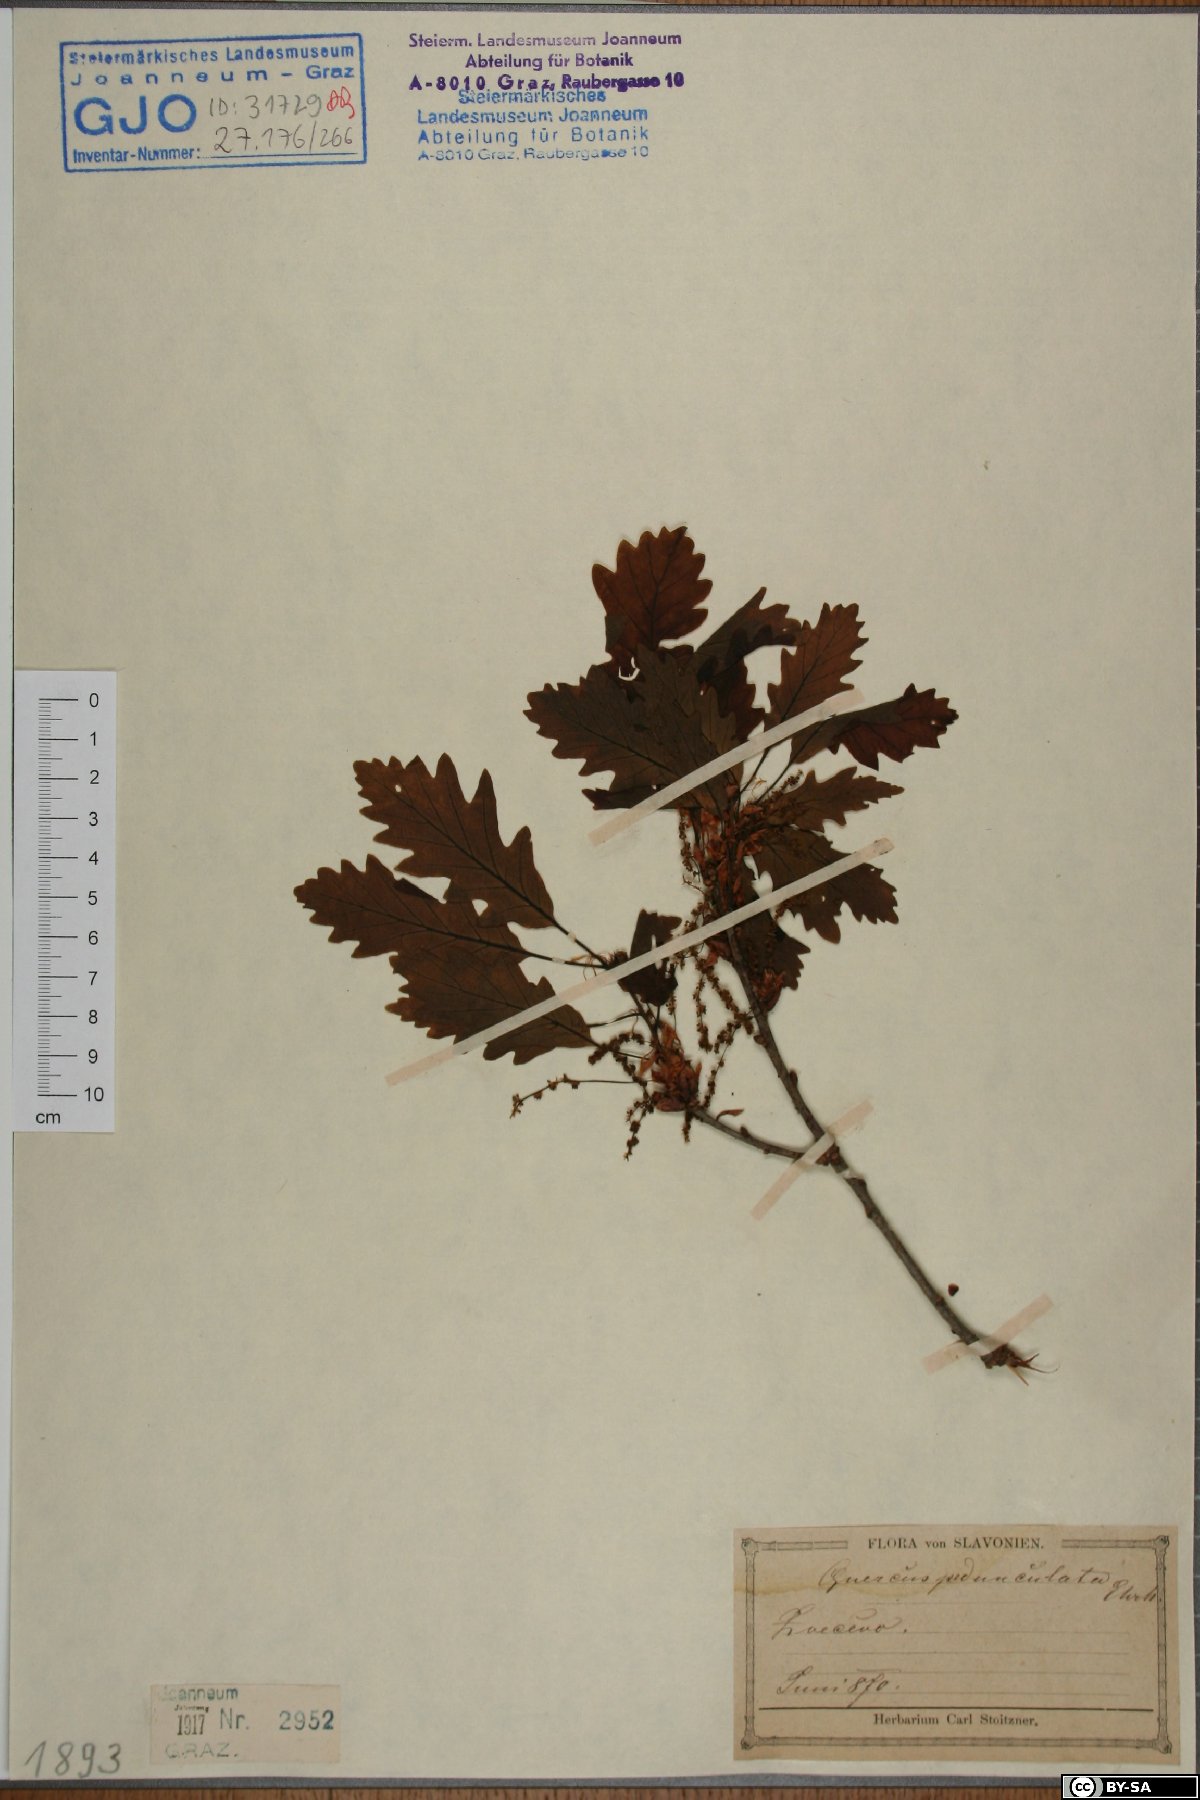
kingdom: Plantae
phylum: Tracheophyta
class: Magnoliopsida
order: Fagales
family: Fagaceae
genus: Quercus
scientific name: Quercus robur
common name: Pedunculate oak
